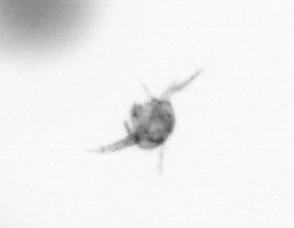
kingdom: Animalia
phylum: Arthropoda
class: Copepoda
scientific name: Copepoda
